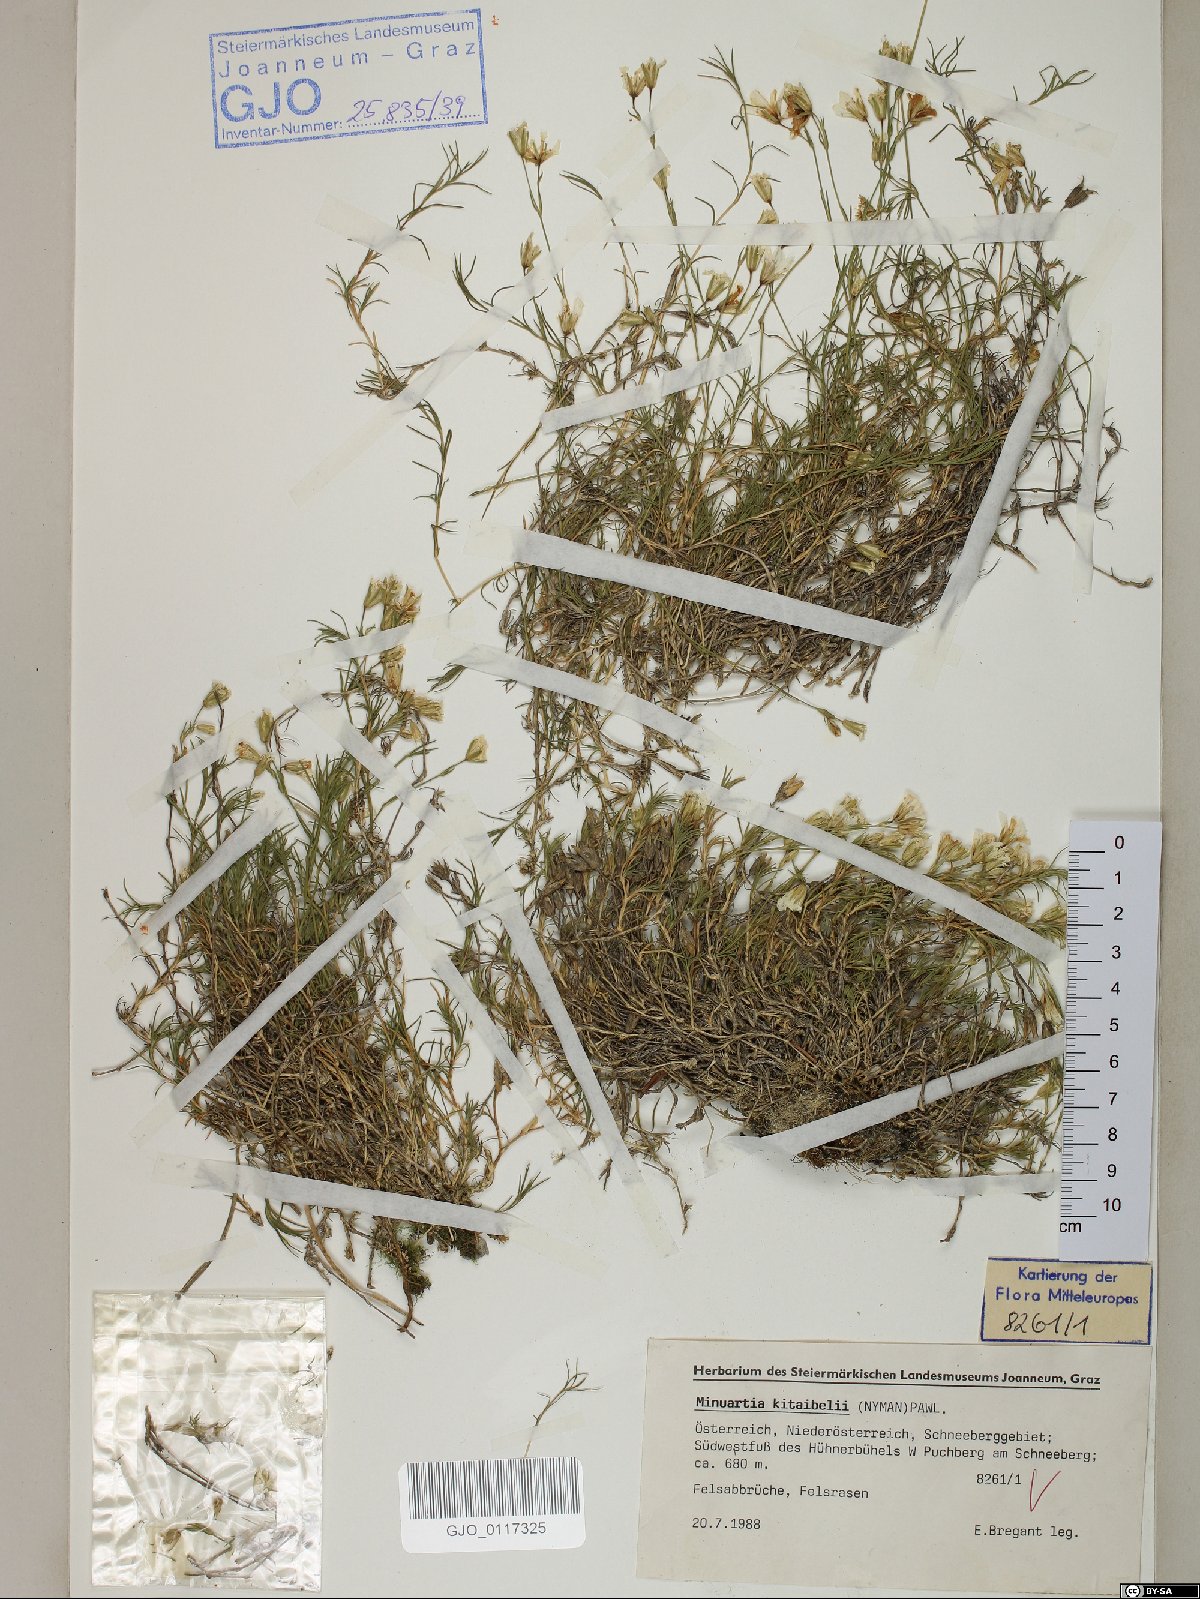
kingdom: Plantae
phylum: Tracheophyta
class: Magnoliopsida
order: Caryophyllales
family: Caryophyllaceae
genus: Cherleria
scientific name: Cherleria langii
